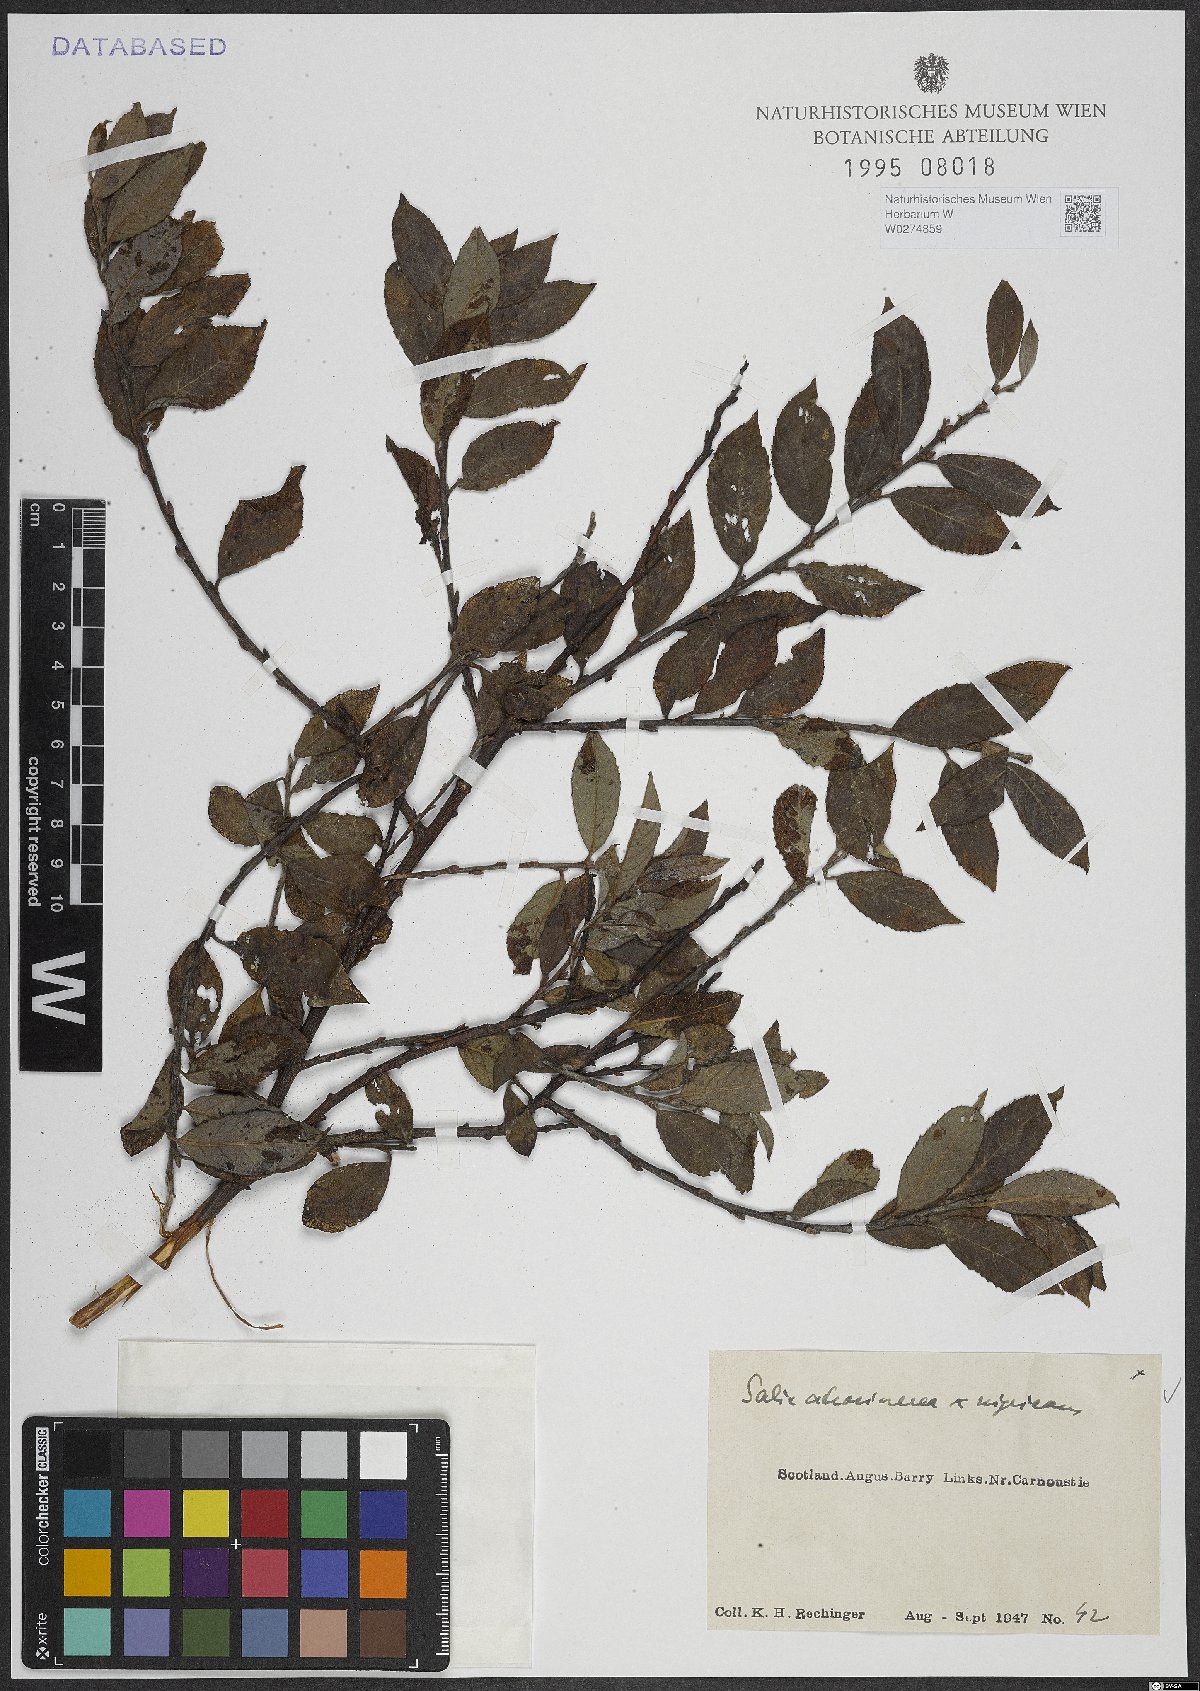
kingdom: Plantae
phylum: Tracheophyta
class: Magnoliopsida
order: Malpighiales
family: Salicaceae
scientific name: Salicaceae
